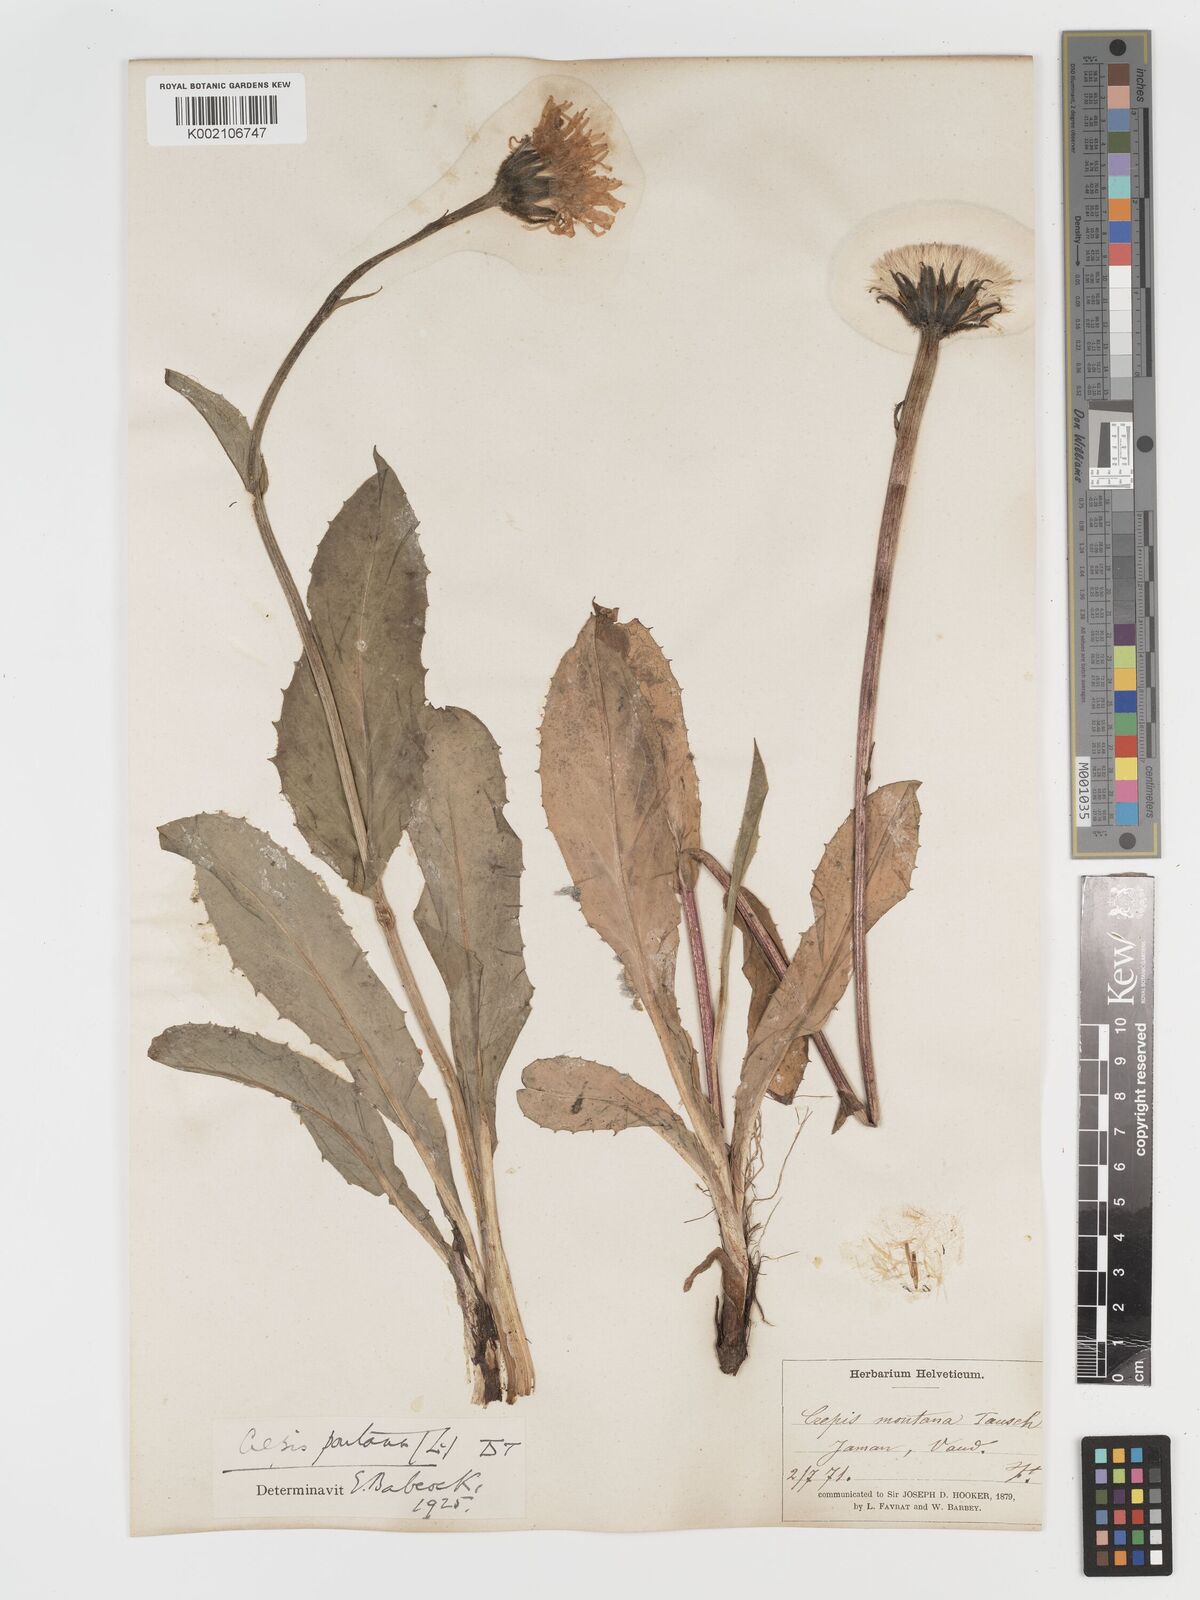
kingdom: Plantae
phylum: Tracheophyta
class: Magnoliopsida
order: Asterales
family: Asteraceae
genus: Crepis
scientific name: Crepis pontana
